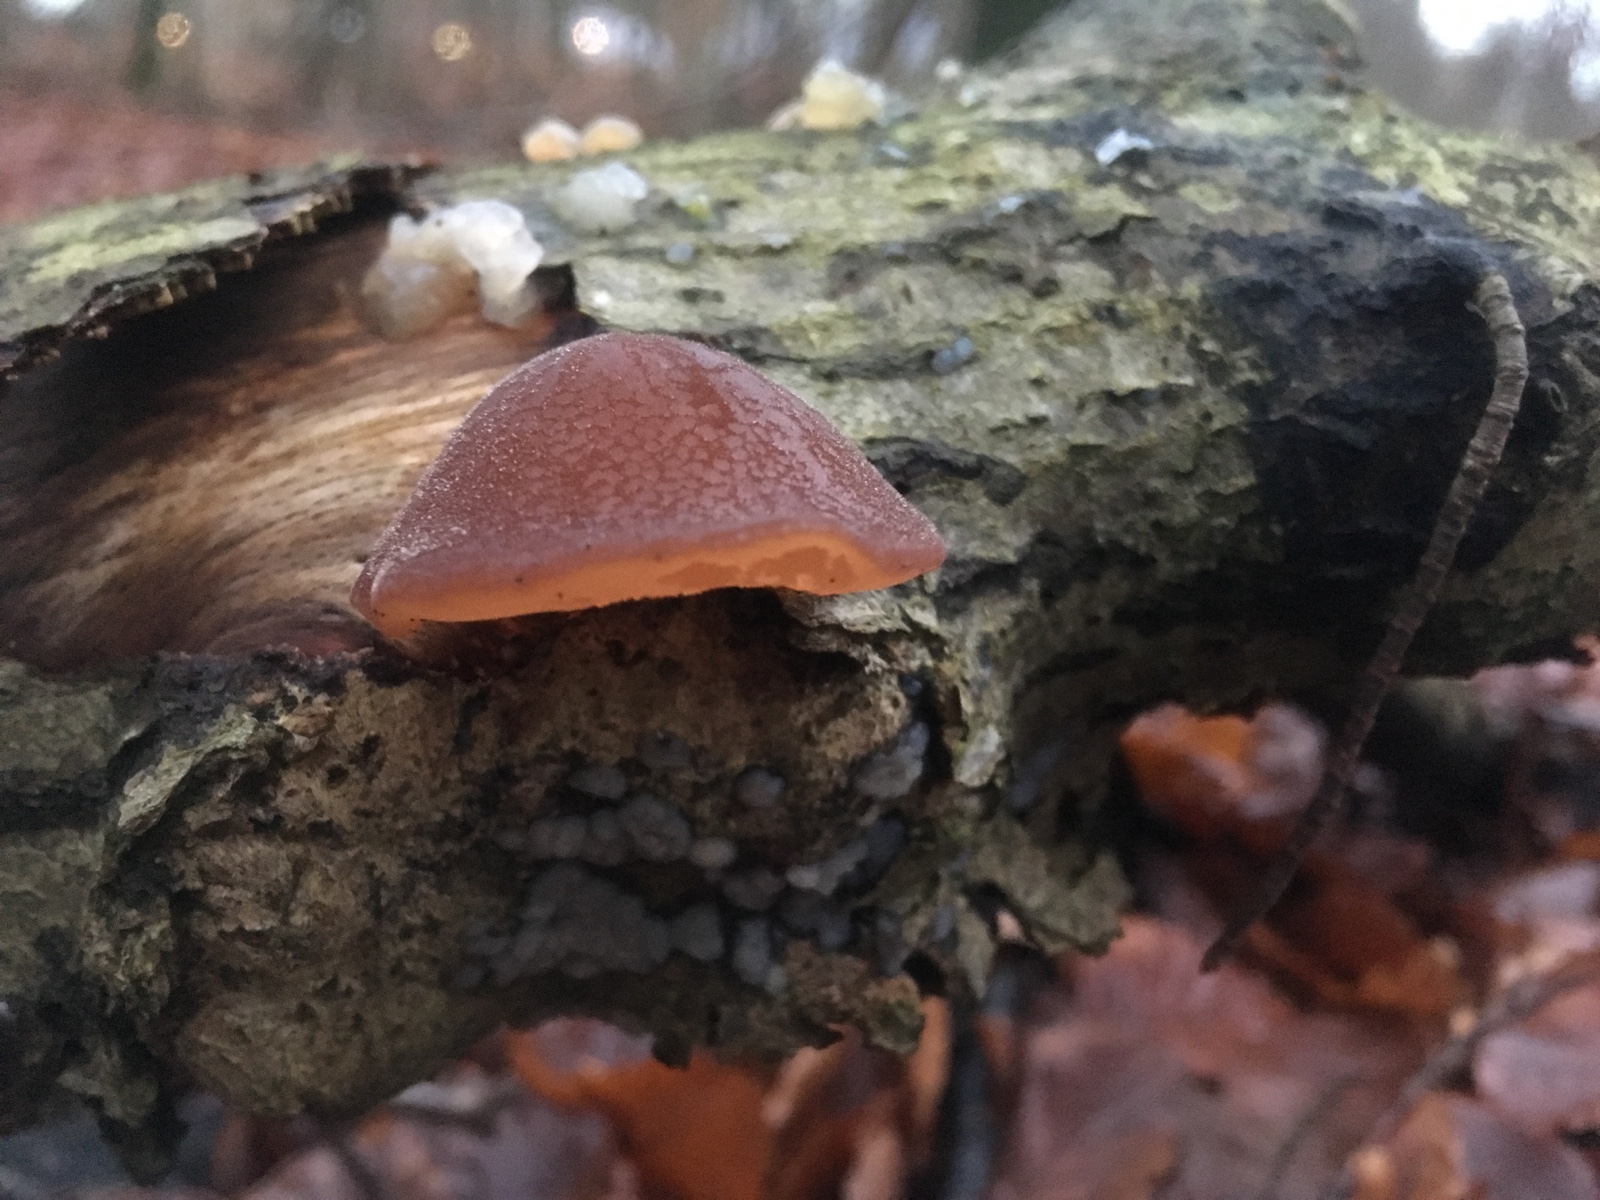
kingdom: Fungi
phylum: Basidiomycota
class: Agaricomycetes
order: Auriculariales
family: Auriculariaceae
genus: Auricularia
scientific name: Auricularia auricula-judae
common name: almindelig judasøre
